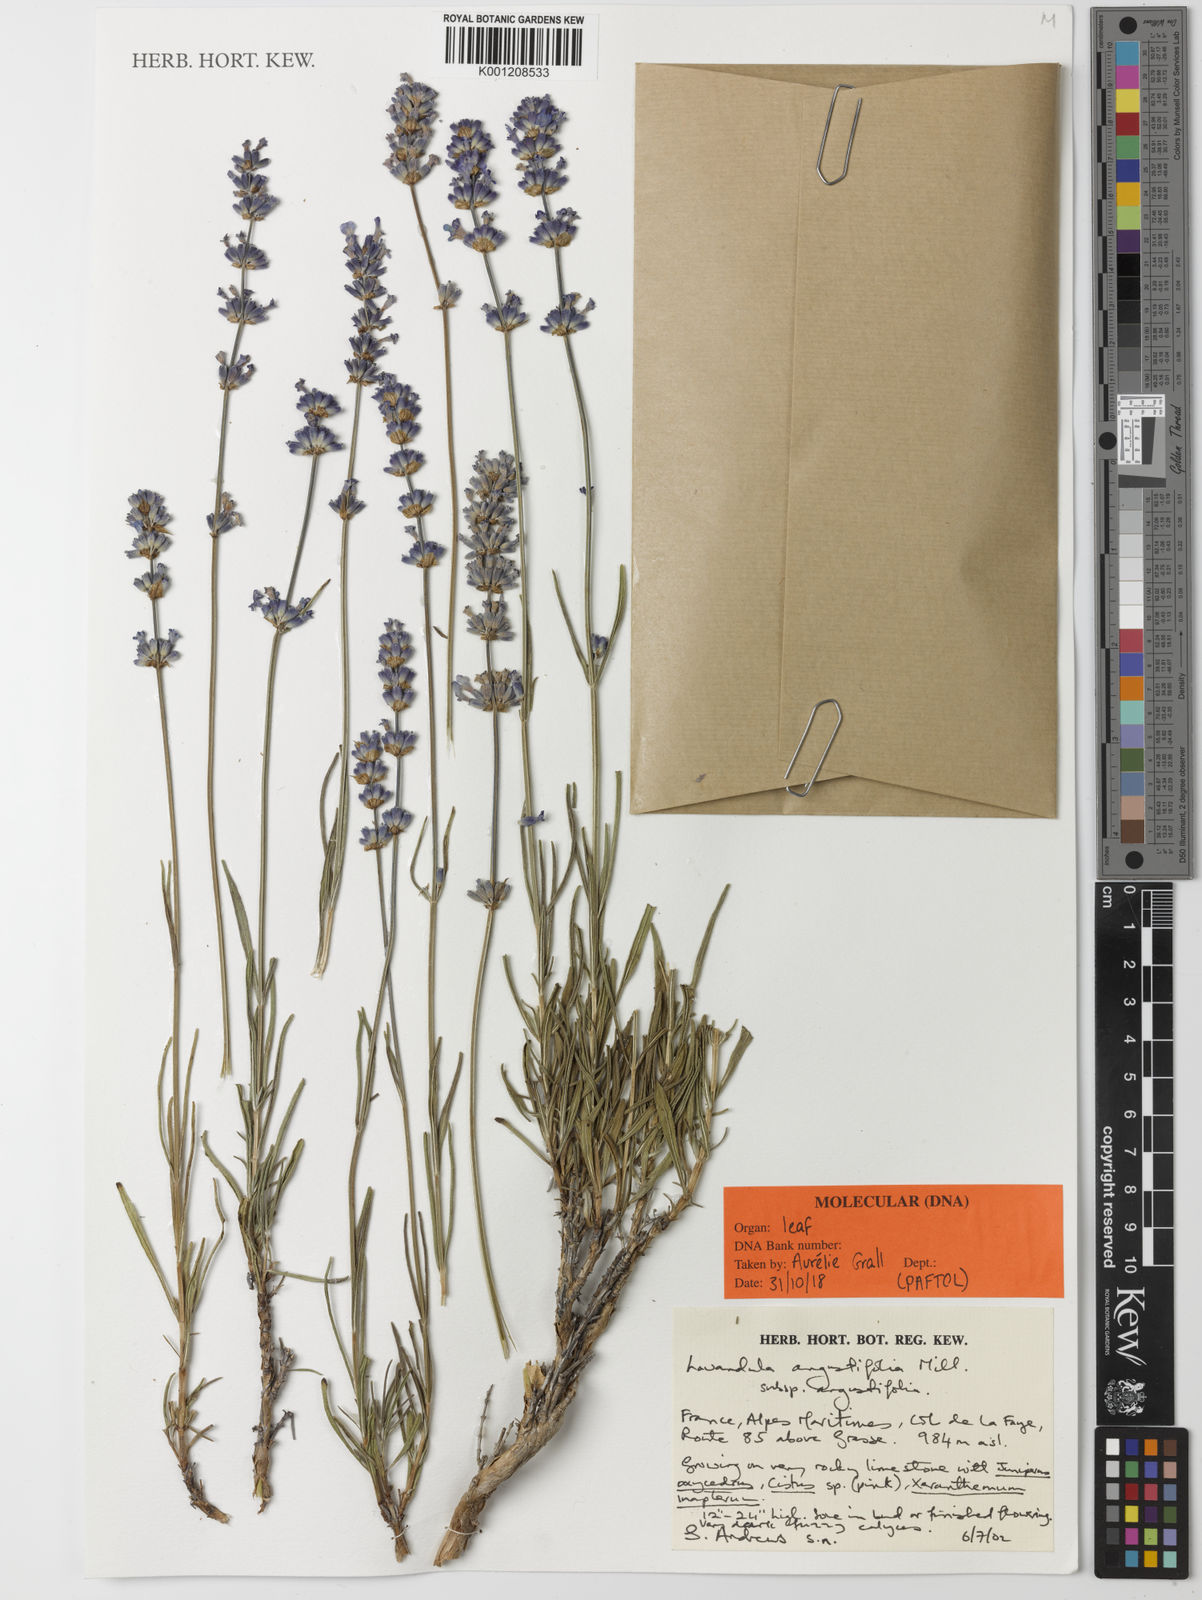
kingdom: Plantae
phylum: Tracheophyta
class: Magnoliopsida
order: Lamiales
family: Lamiaceae
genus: Lavandula
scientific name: Lavandula angustifolia
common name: Garden lavender
